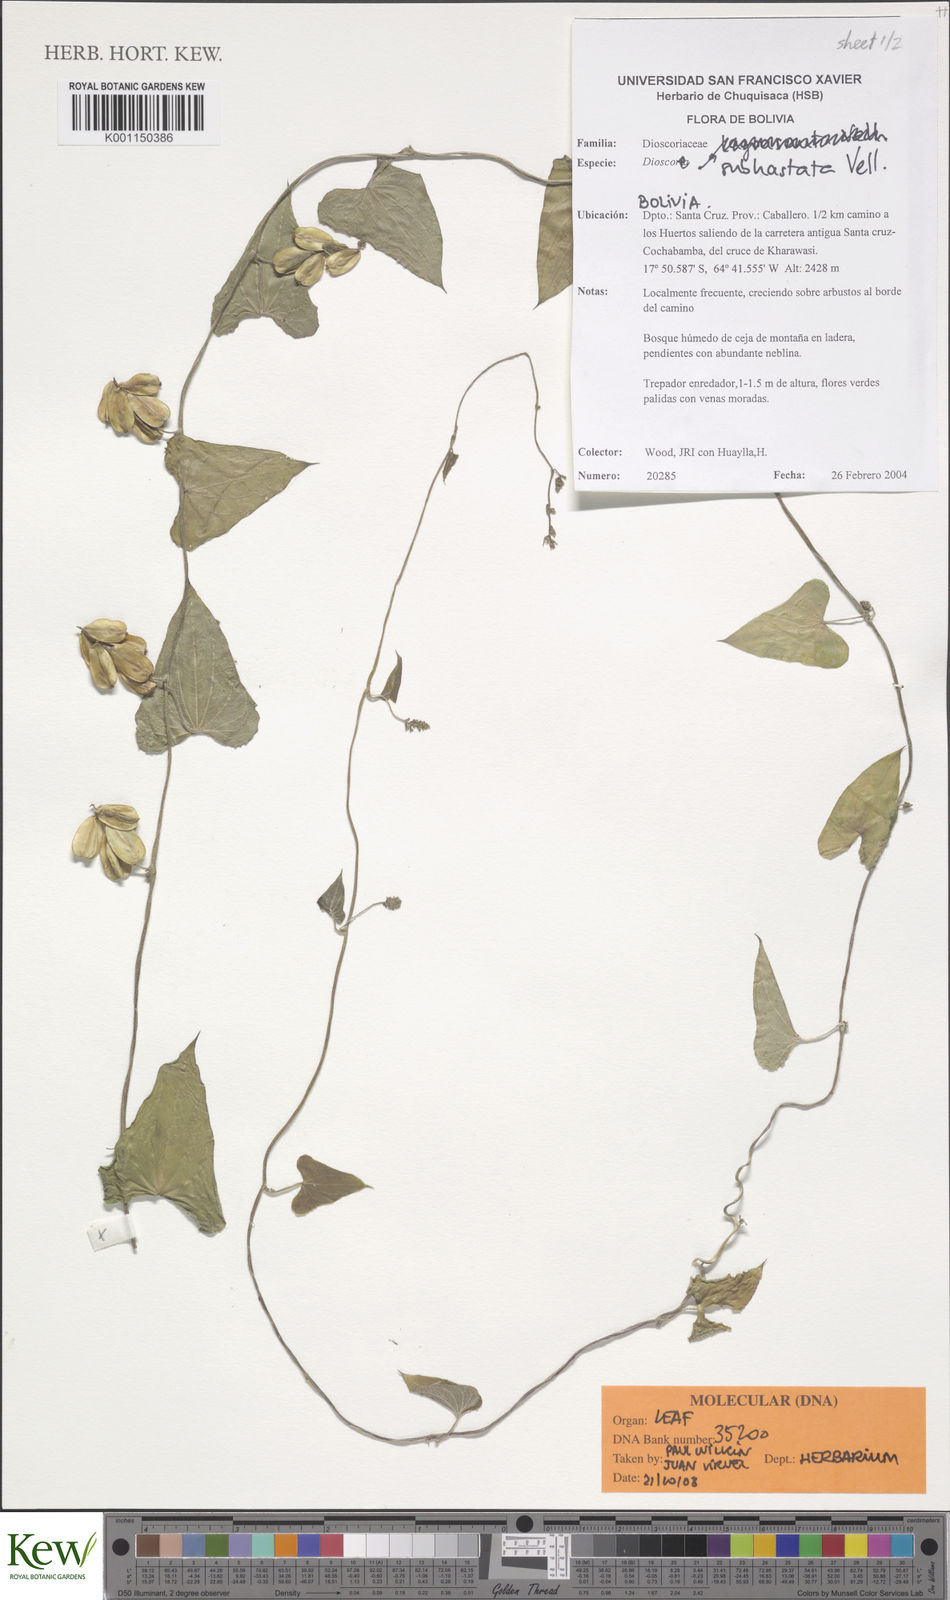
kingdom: Plantae
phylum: Tracheophyta
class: Liliopsida
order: Dioscoreales
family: Dioscoreaceae
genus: Dioscorea
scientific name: Dioscorea monadelpha
